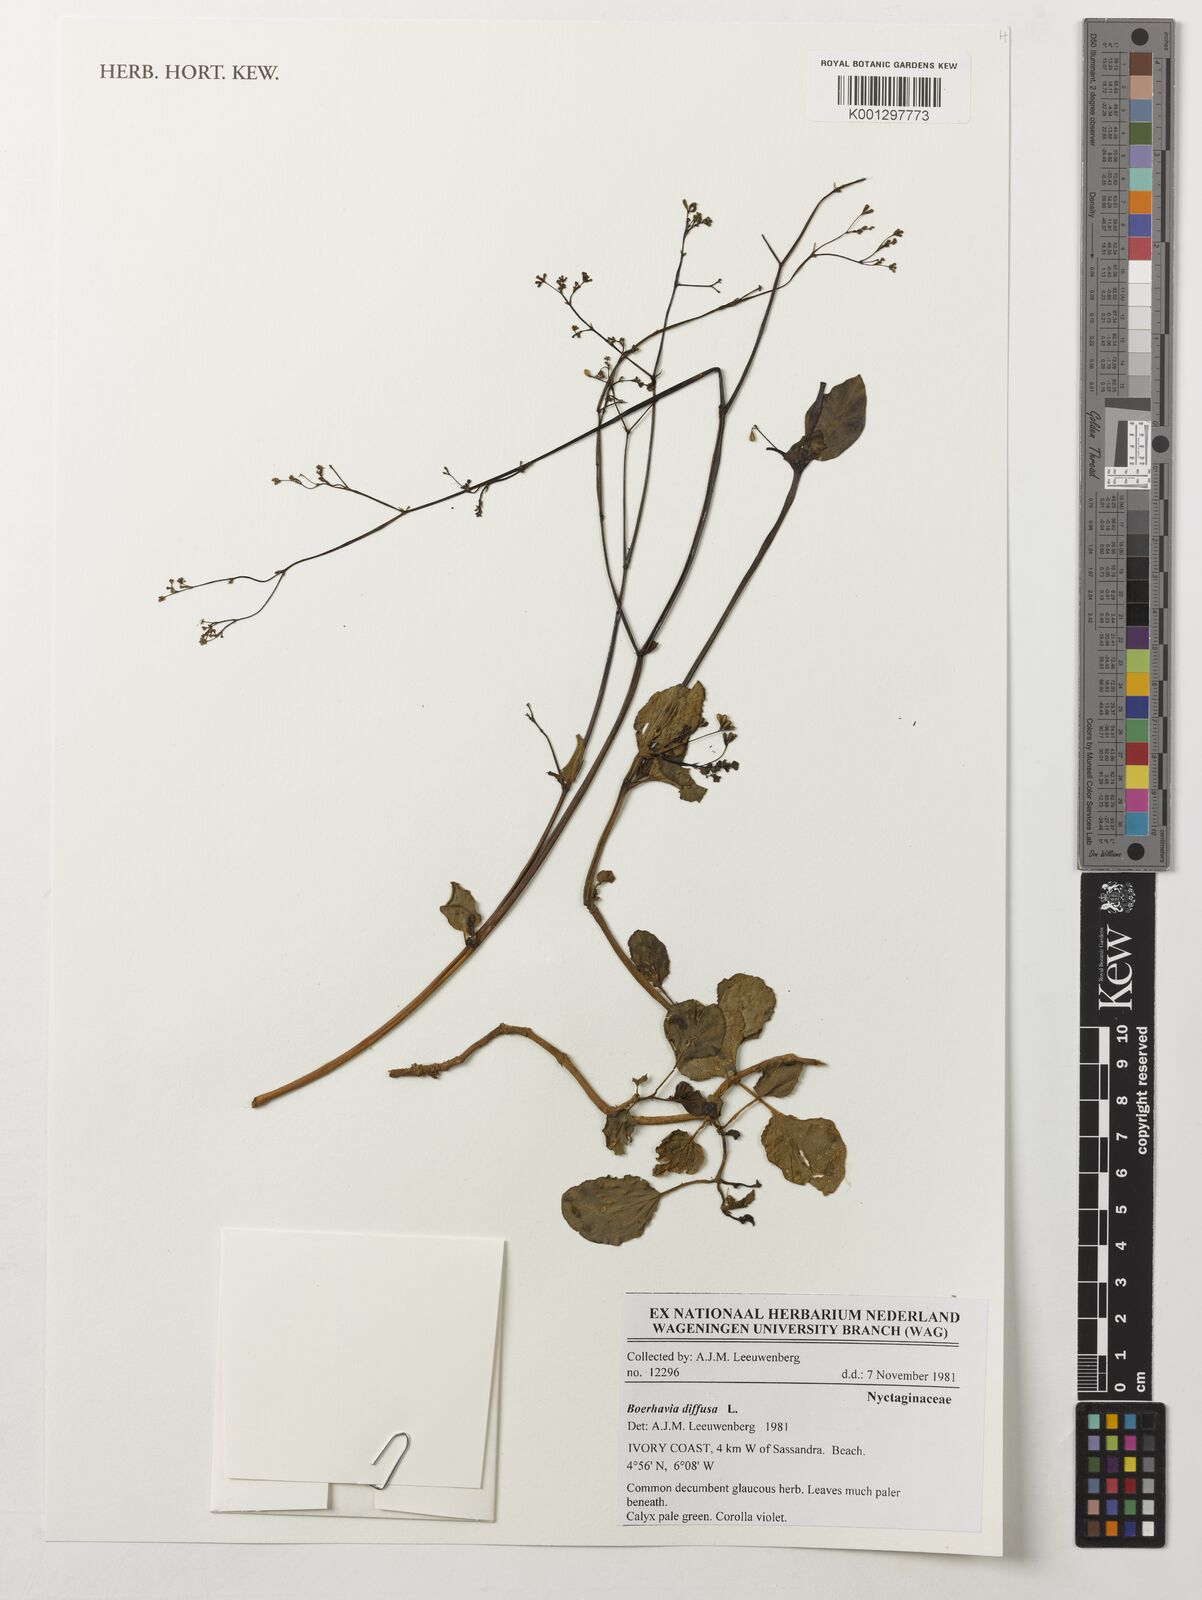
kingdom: Plantae
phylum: Tracheophyta
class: Magnoliopsida
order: Caryophyllales
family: Nyctaginaceae
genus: Boerhavia
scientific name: Boerhavia diffusa
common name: Red spiderling
